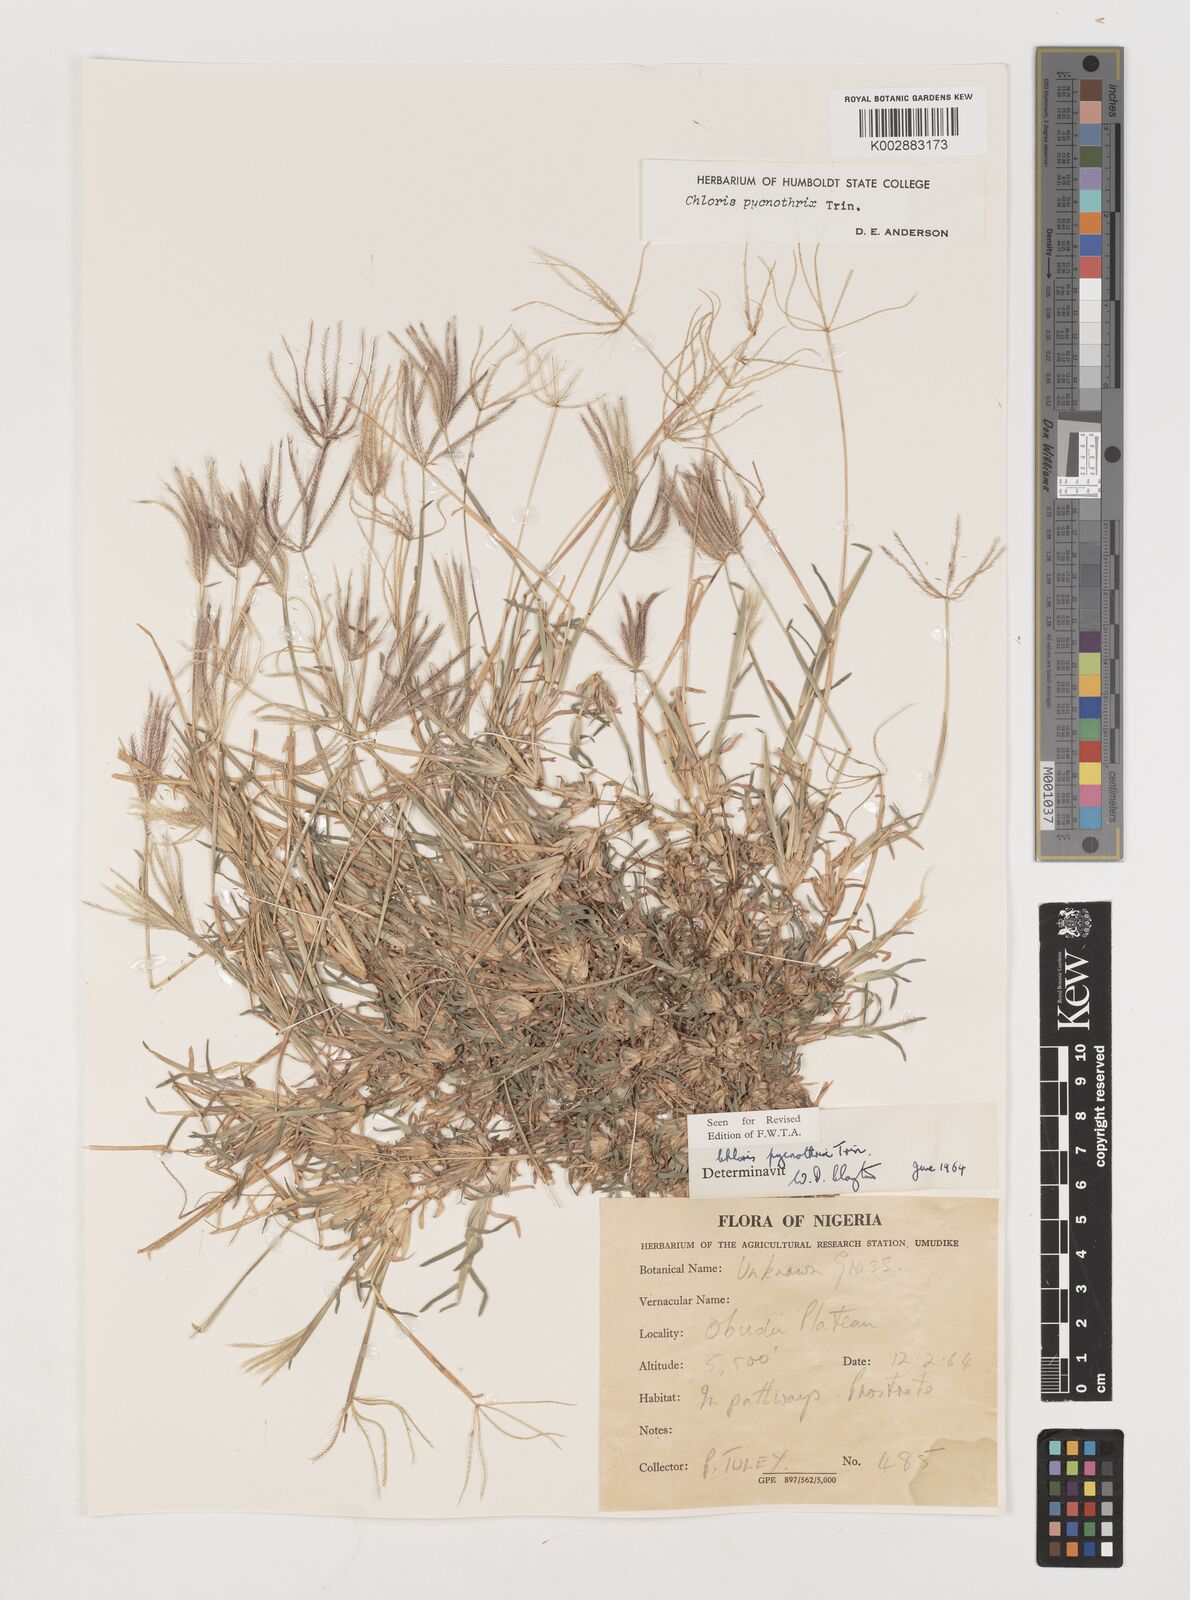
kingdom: Plantae
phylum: Tracheophyta
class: Liliopsida
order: Poales
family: Poaceae
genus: Chloris
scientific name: Chloris pycnothrix
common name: Spiderweb chloris
